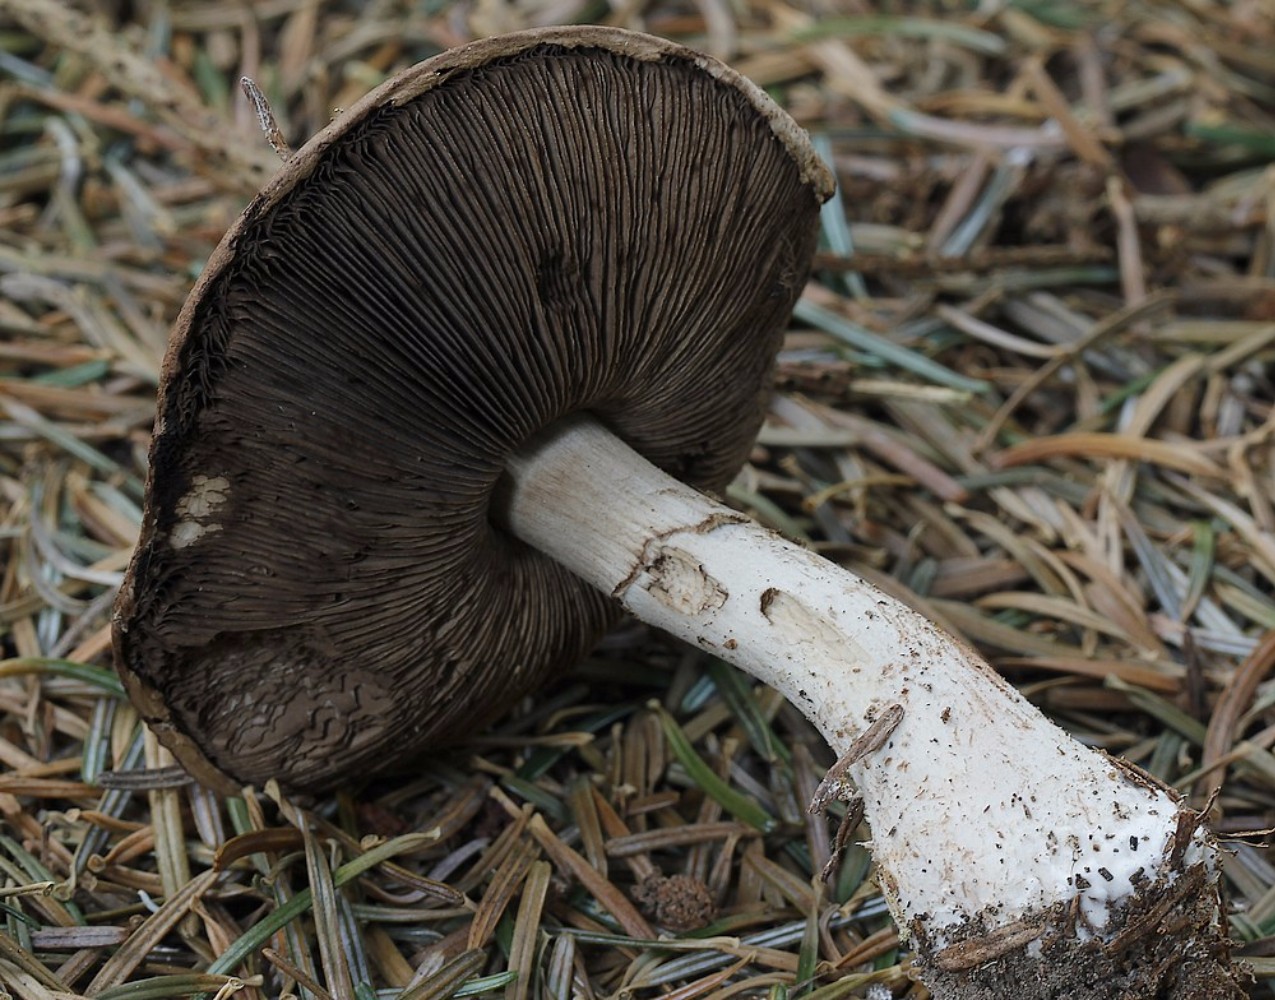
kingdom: Fungi
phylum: Basidiomycota
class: Agaricomycetes
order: Agaricales
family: Agaricaceae
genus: Agaricus
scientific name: Agaricus
